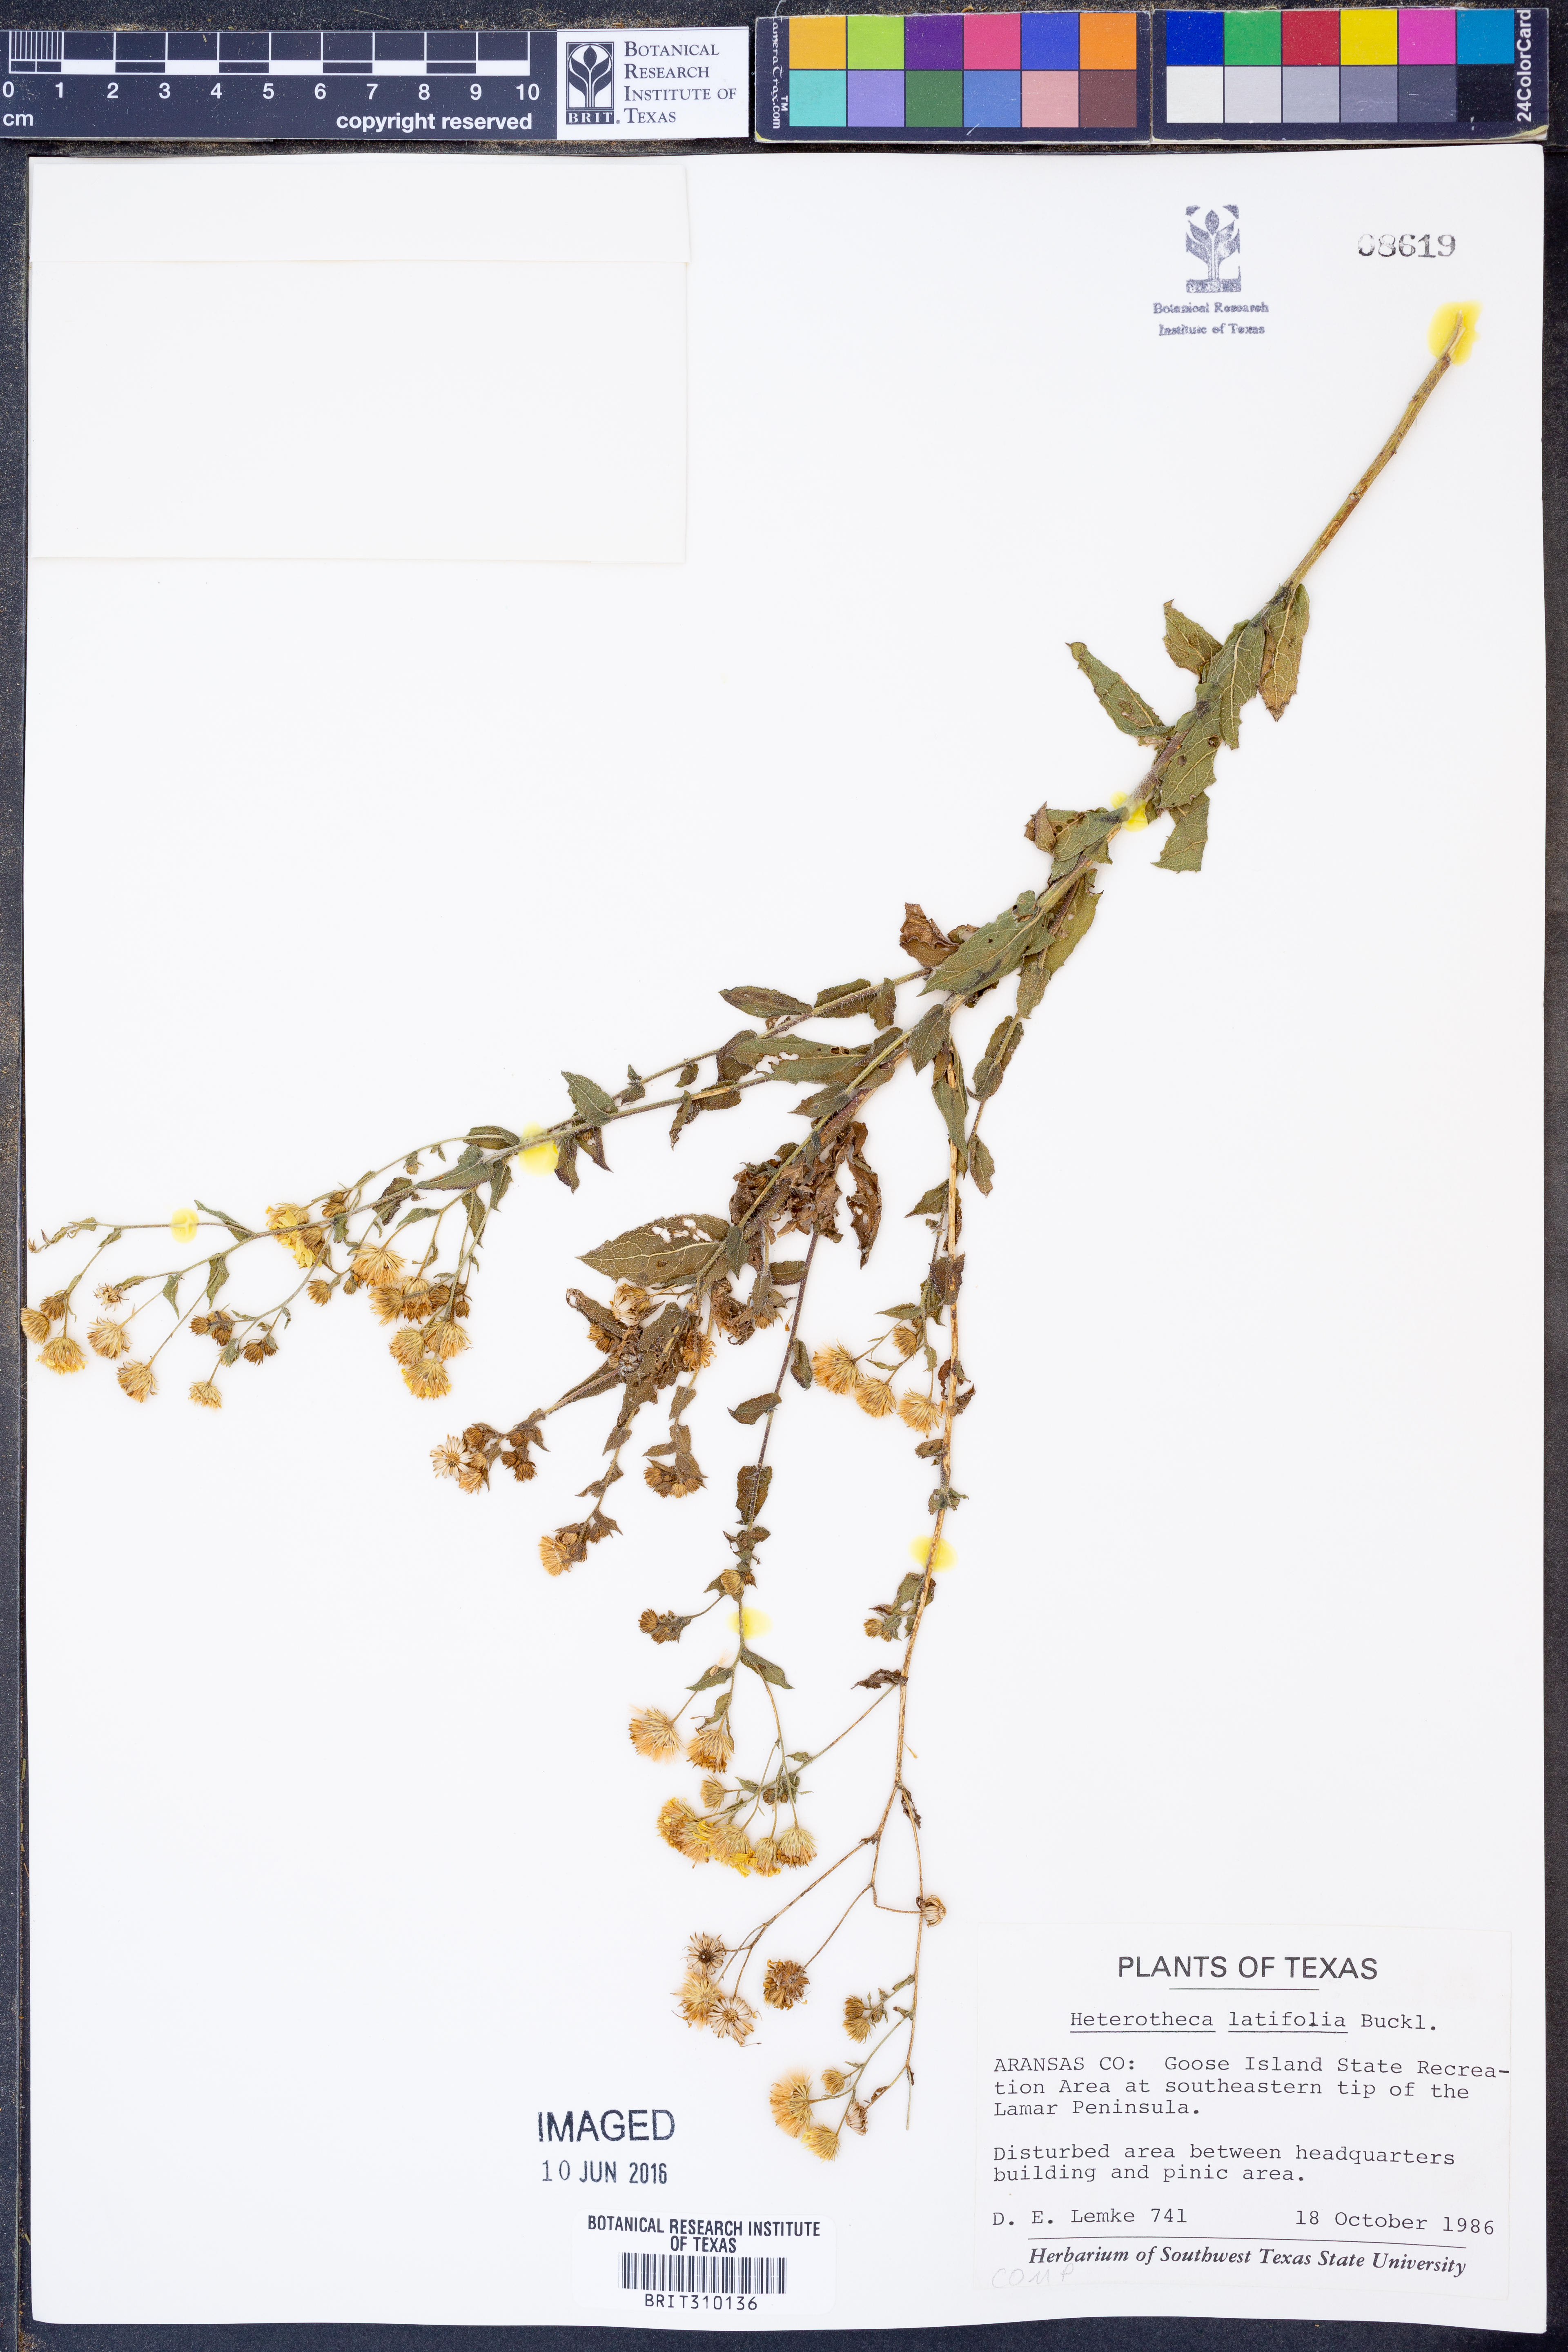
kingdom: Plantae
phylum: Tracheophyta
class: Magnoliopsida
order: Asterales
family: Asteraceae
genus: Heterotheca
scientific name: Heterotheca subaxillaris
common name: Camphorweed
